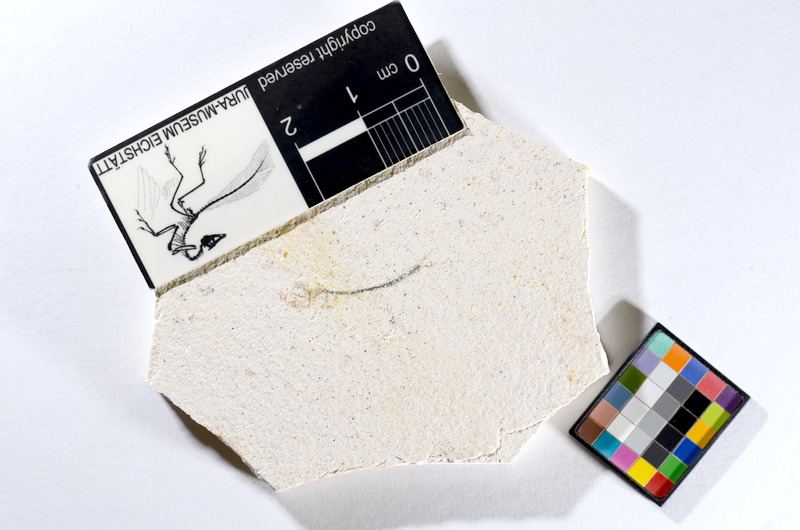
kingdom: Animalia
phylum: Chordata
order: Salmoniformes
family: Orthogonikleithridae
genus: Orthogonikleithrus
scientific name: Orthogonikleithrus hoelli
